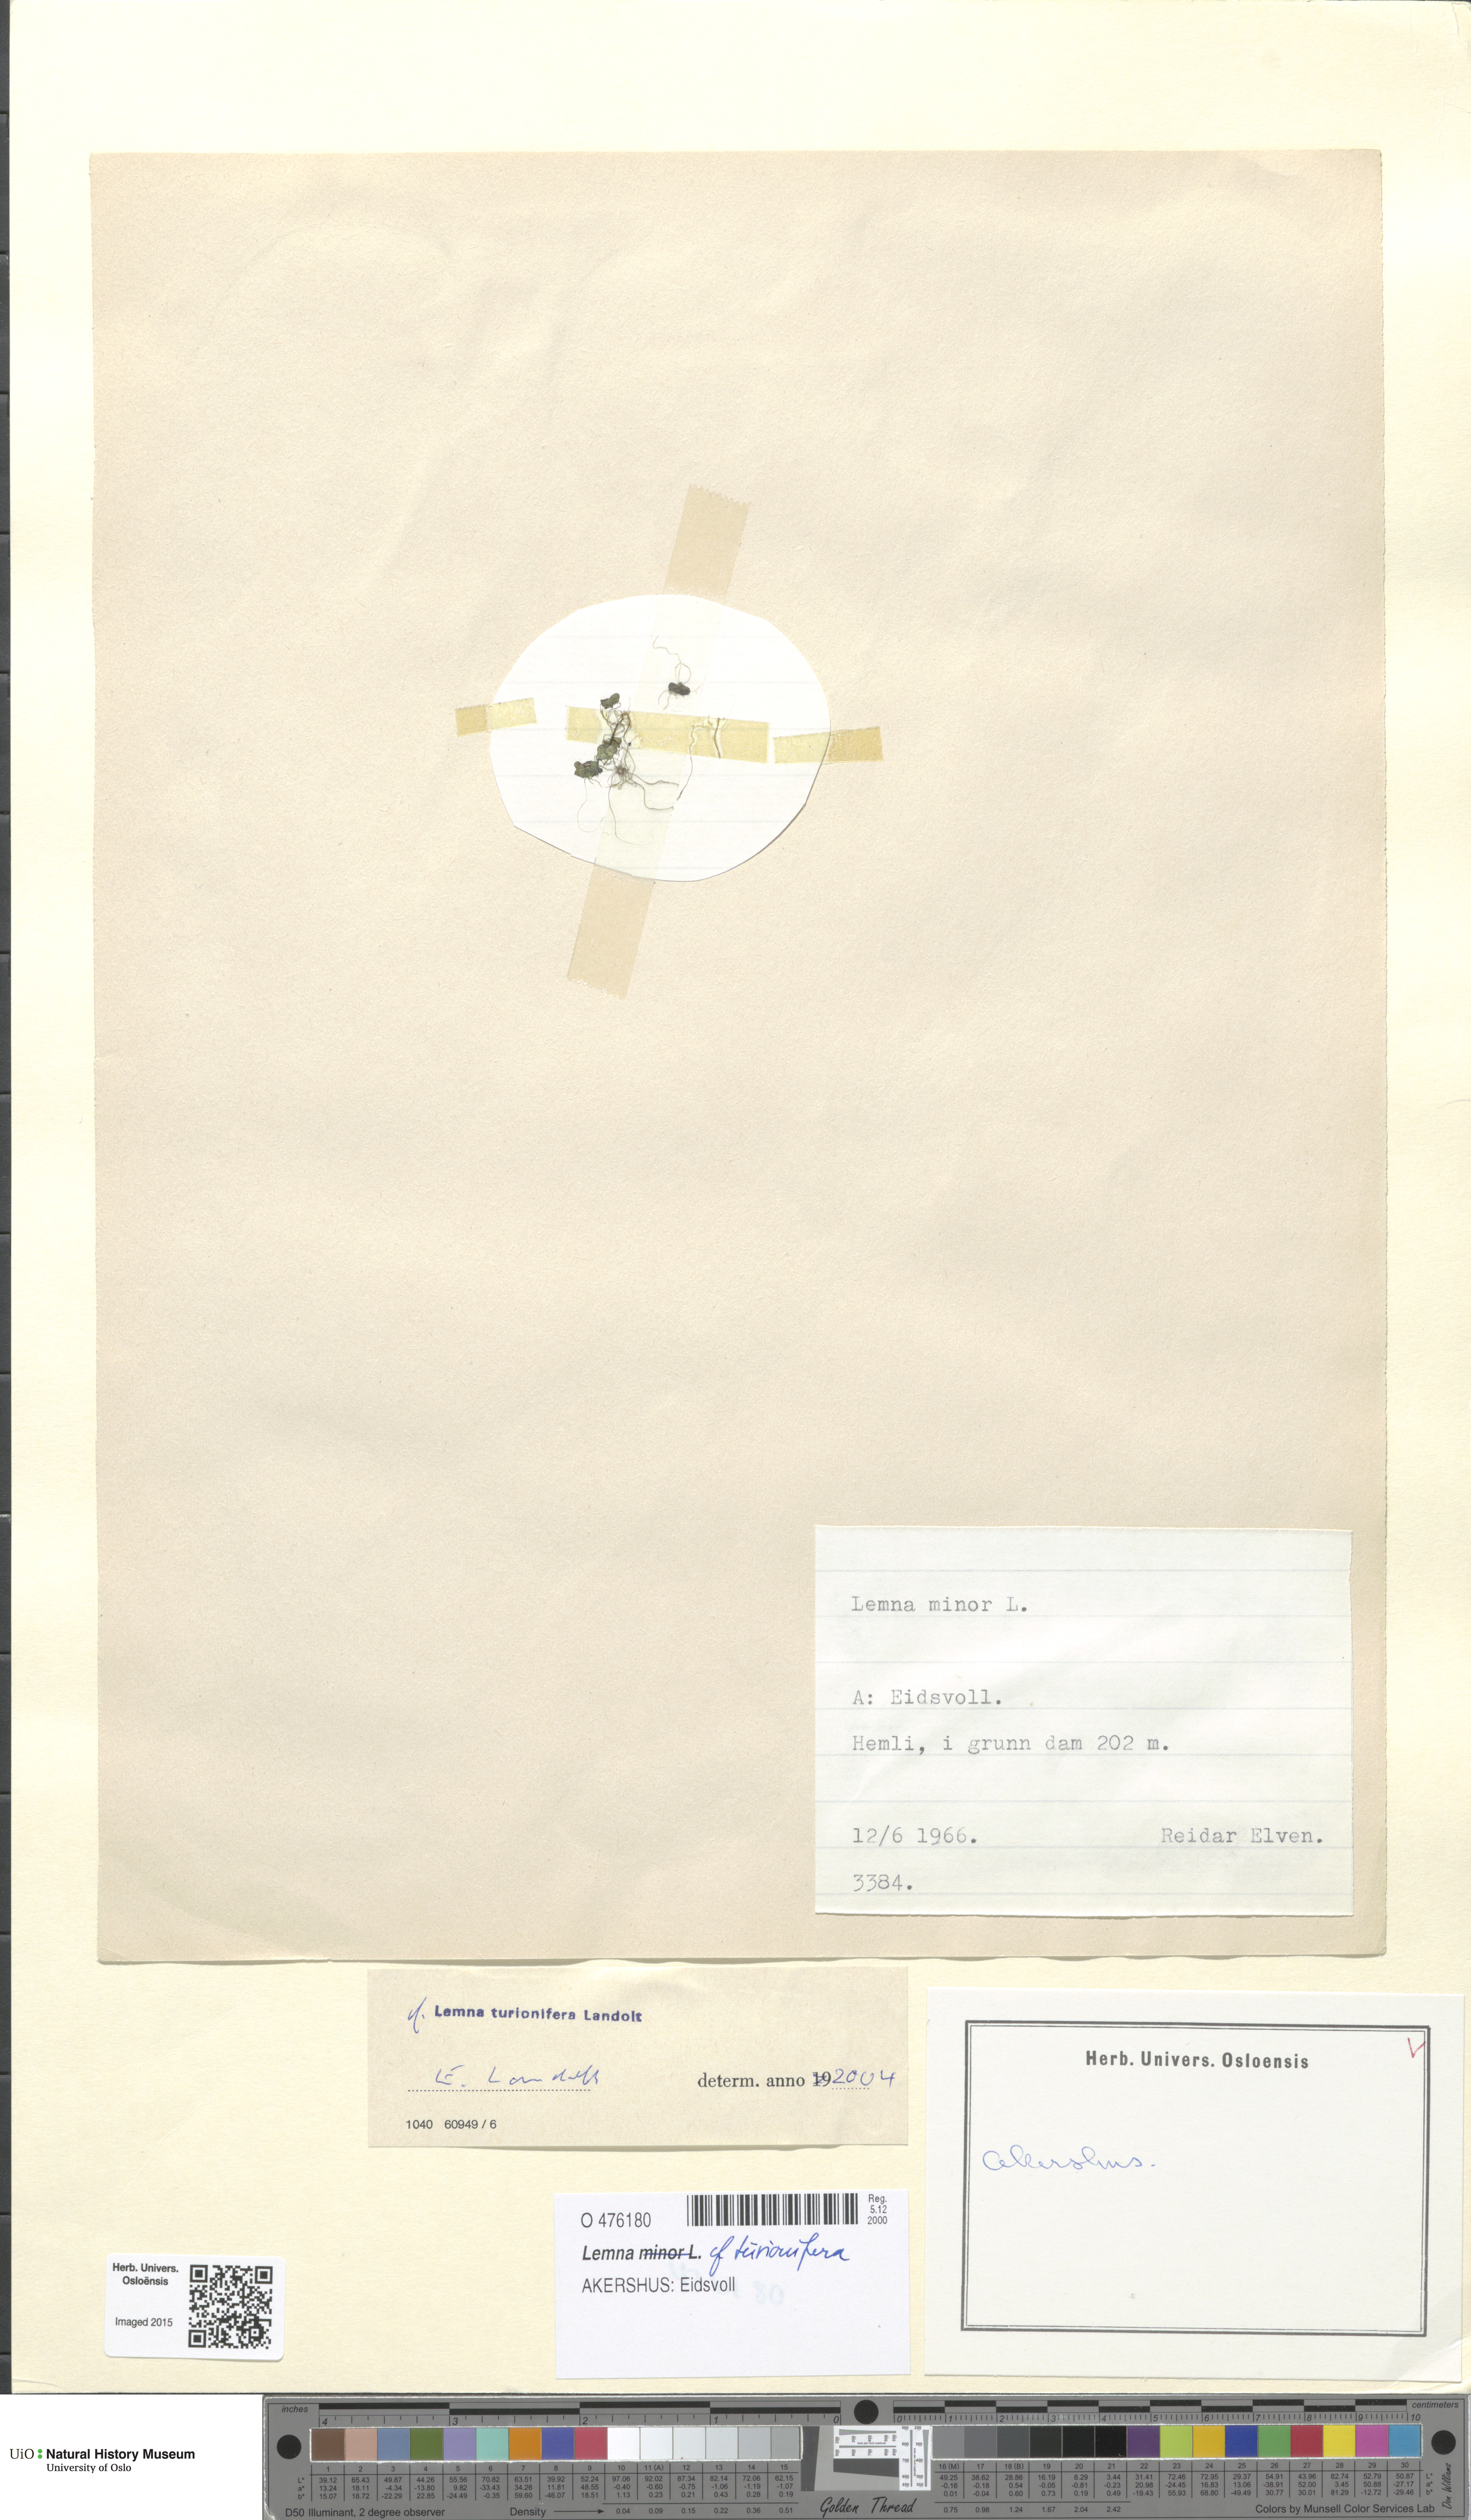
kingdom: Plantae
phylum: Tracheophyta
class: Liliopsida
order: Alismatales
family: Araceae
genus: Lemna
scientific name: Lemna turionifera
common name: Perennial duckweed
